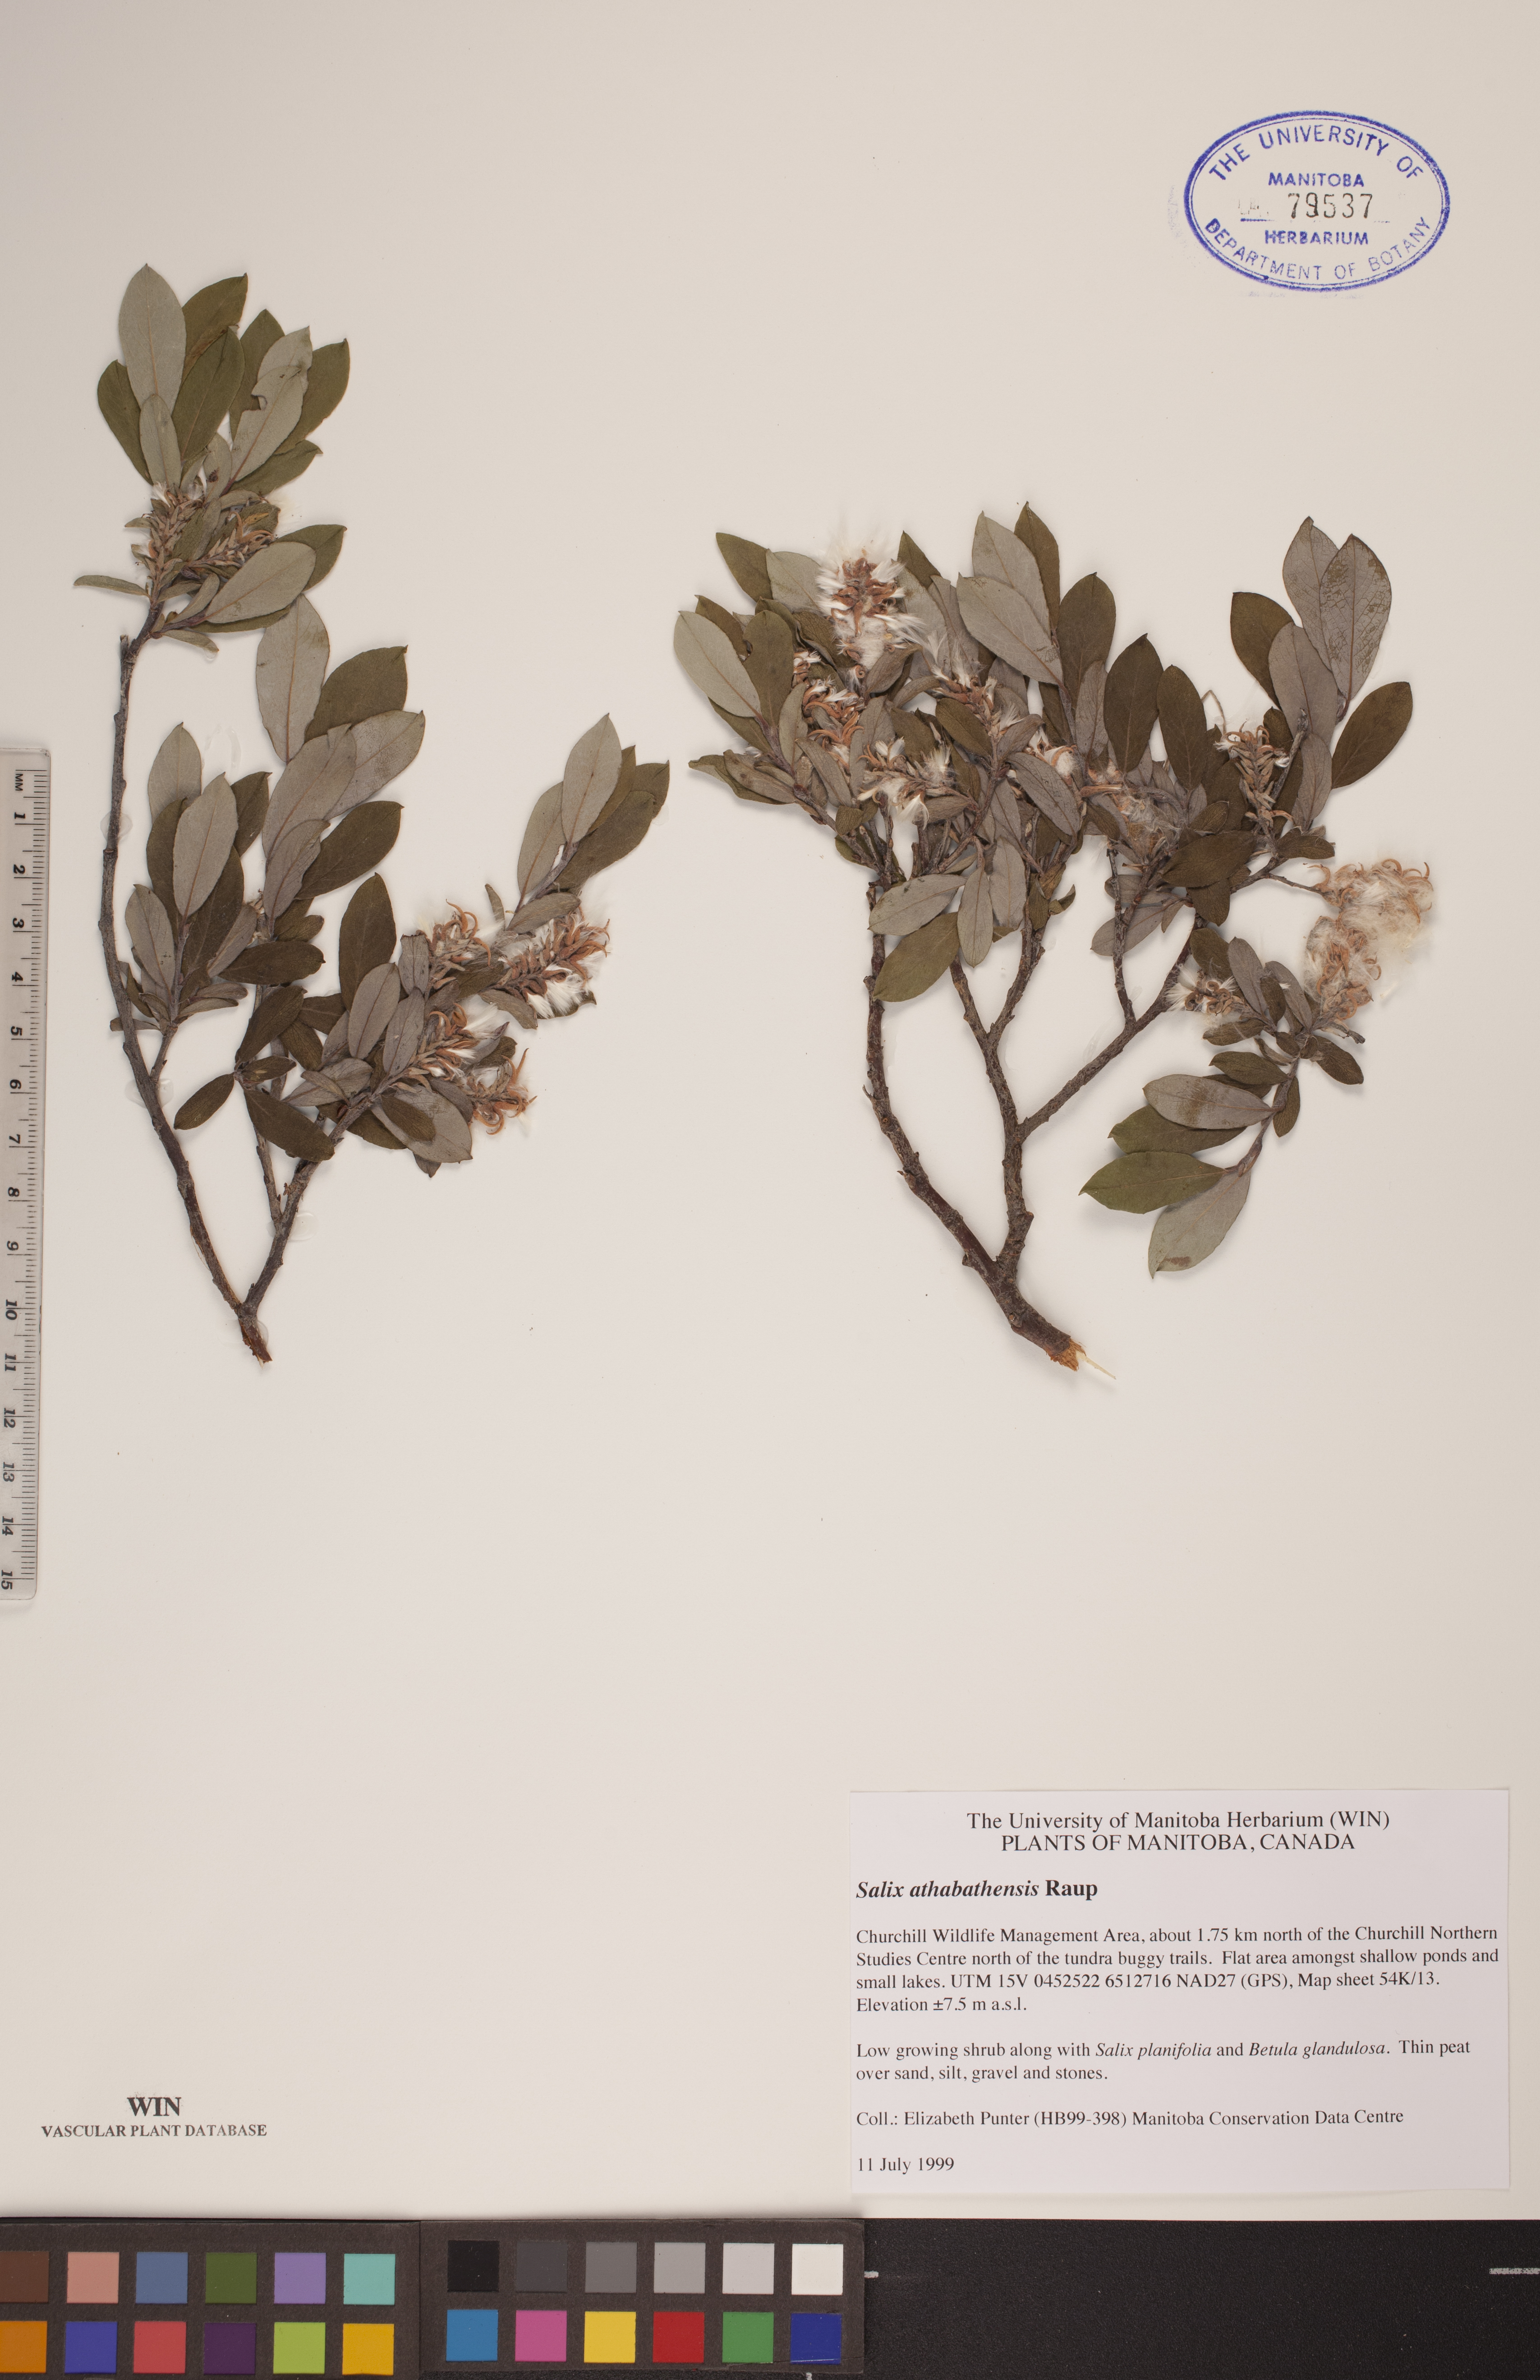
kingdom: Plantae
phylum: Tracheophyta
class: Magnoliopsida
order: Malpighiales
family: Salicaceae
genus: Salix
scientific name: Salix athabascensis
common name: Athabasca willow
